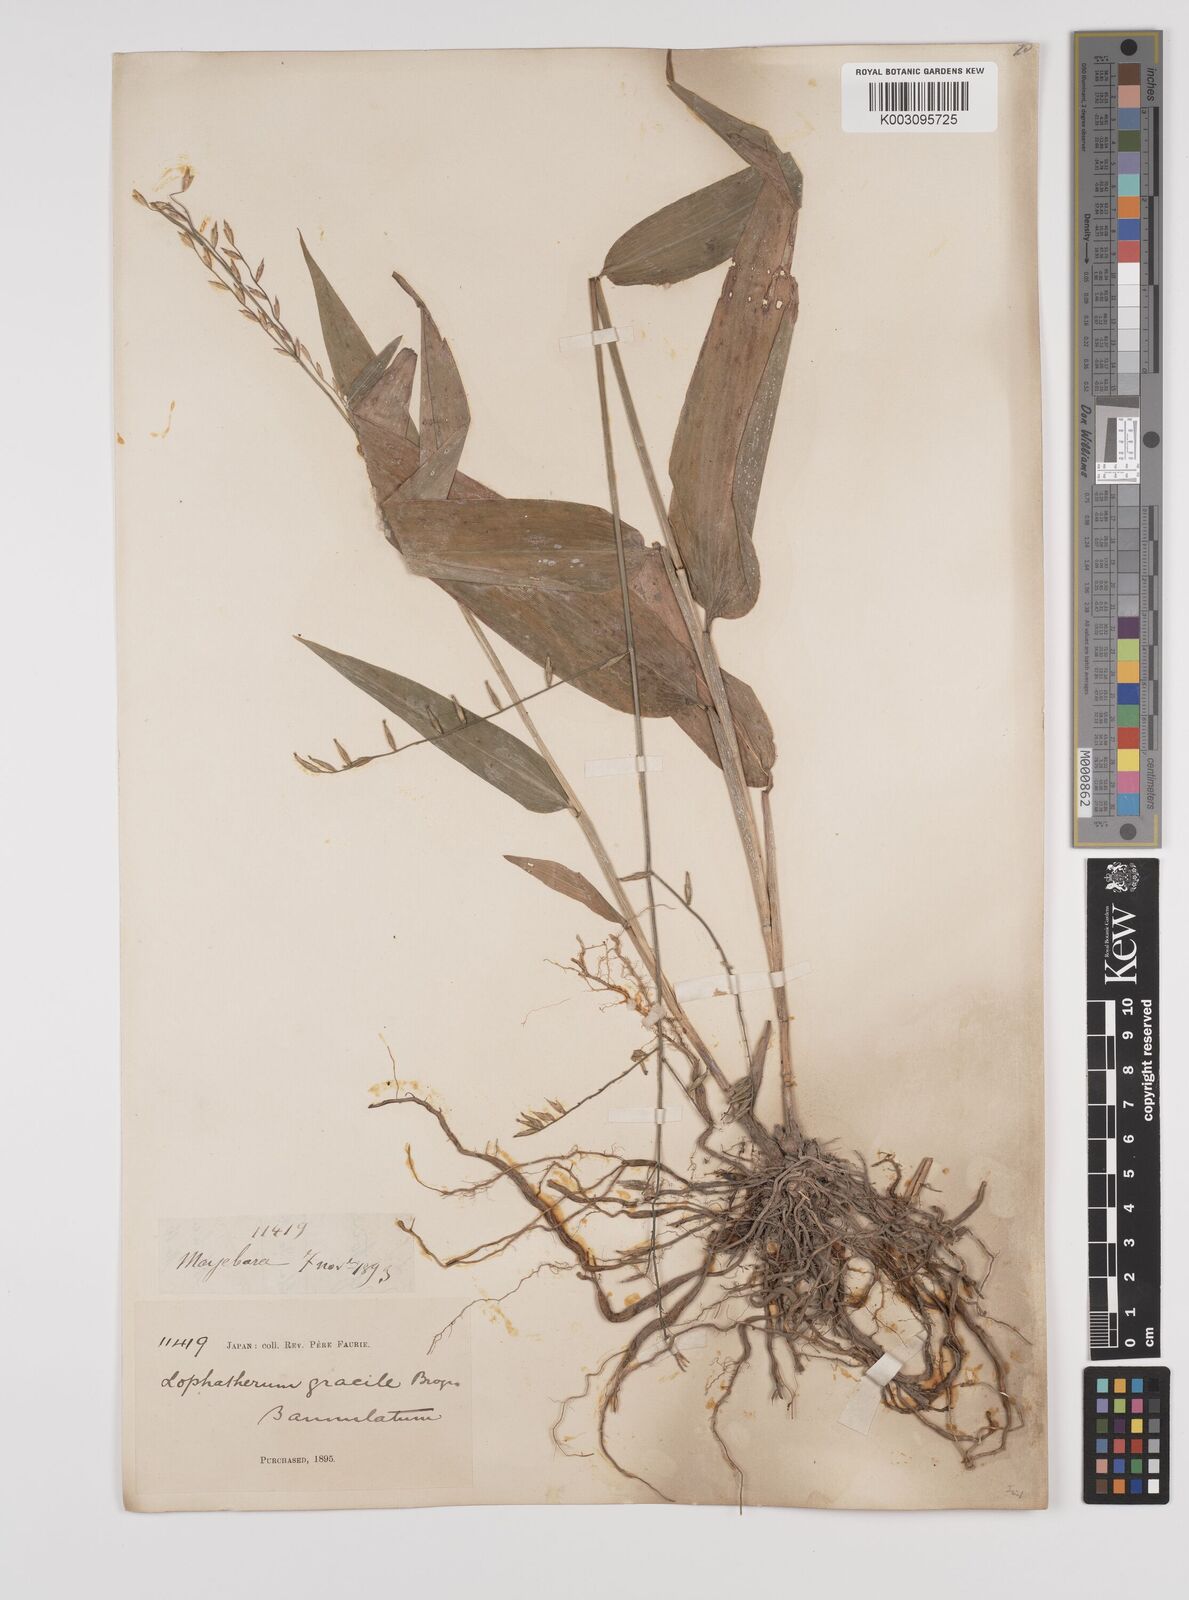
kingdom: Plantae
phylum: Tracheophyta
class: Liliopsida
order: Poales
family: Poaceae
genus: Lophatherum
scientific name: Lophatherum gracile
